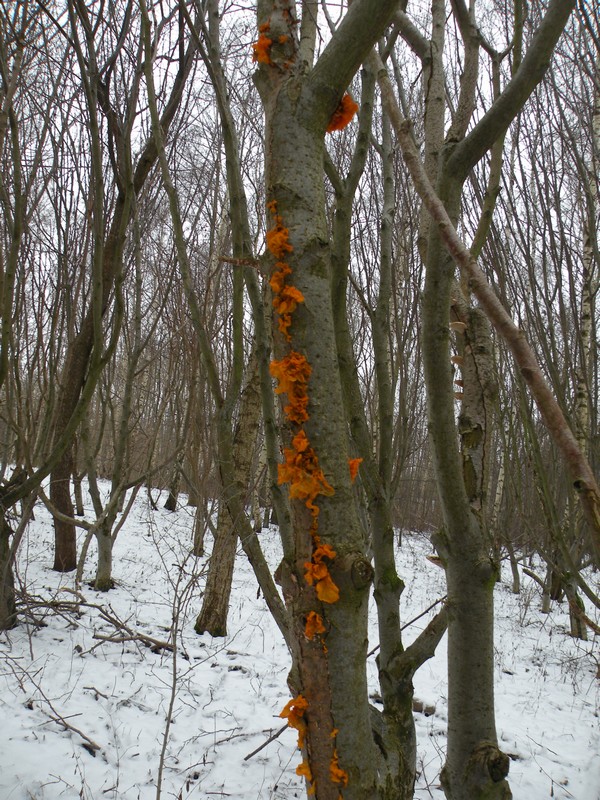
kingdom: Fungi
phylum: Basidiomycota
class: Tremellomycetes
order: Tremellales
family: Tremellaceae
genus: Tremella
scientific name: Tremella mesenterica
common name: gul bævresvamp
